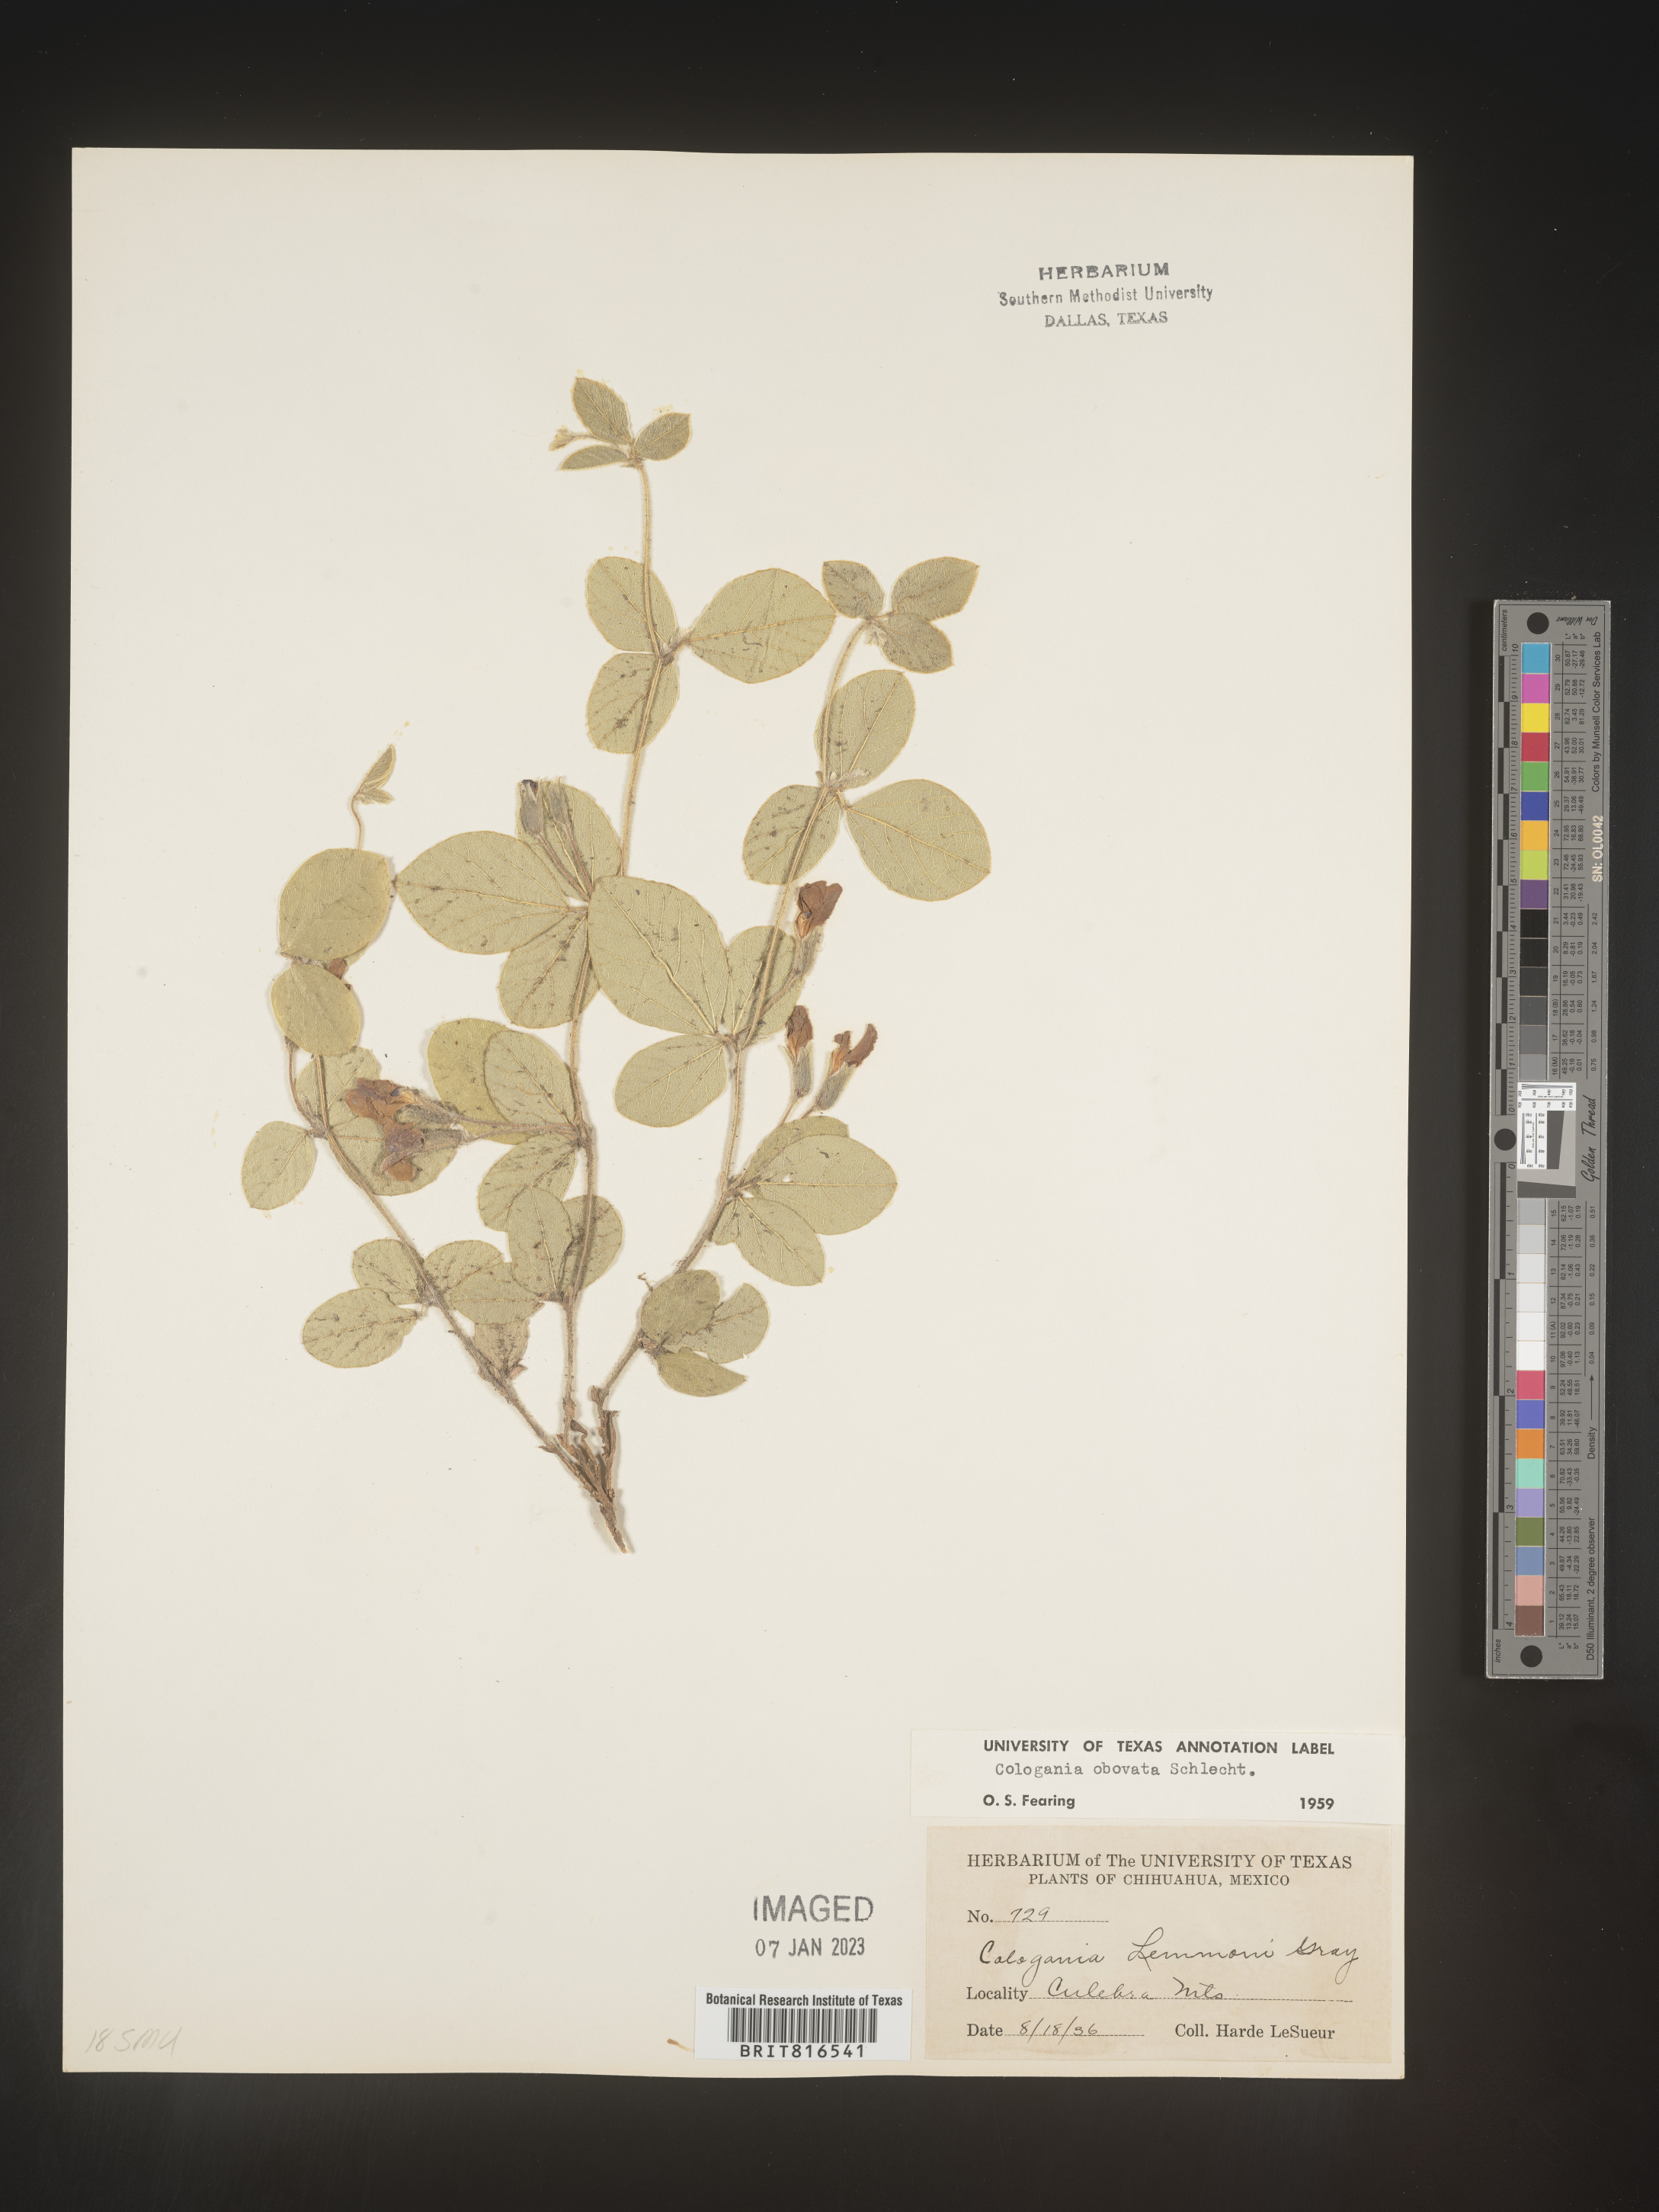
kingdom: Plantae
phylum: Tracheophyta
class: Magnoliopsida
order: Fabales
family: Fabaceae
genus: Cologania
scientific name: Cologania obovata
